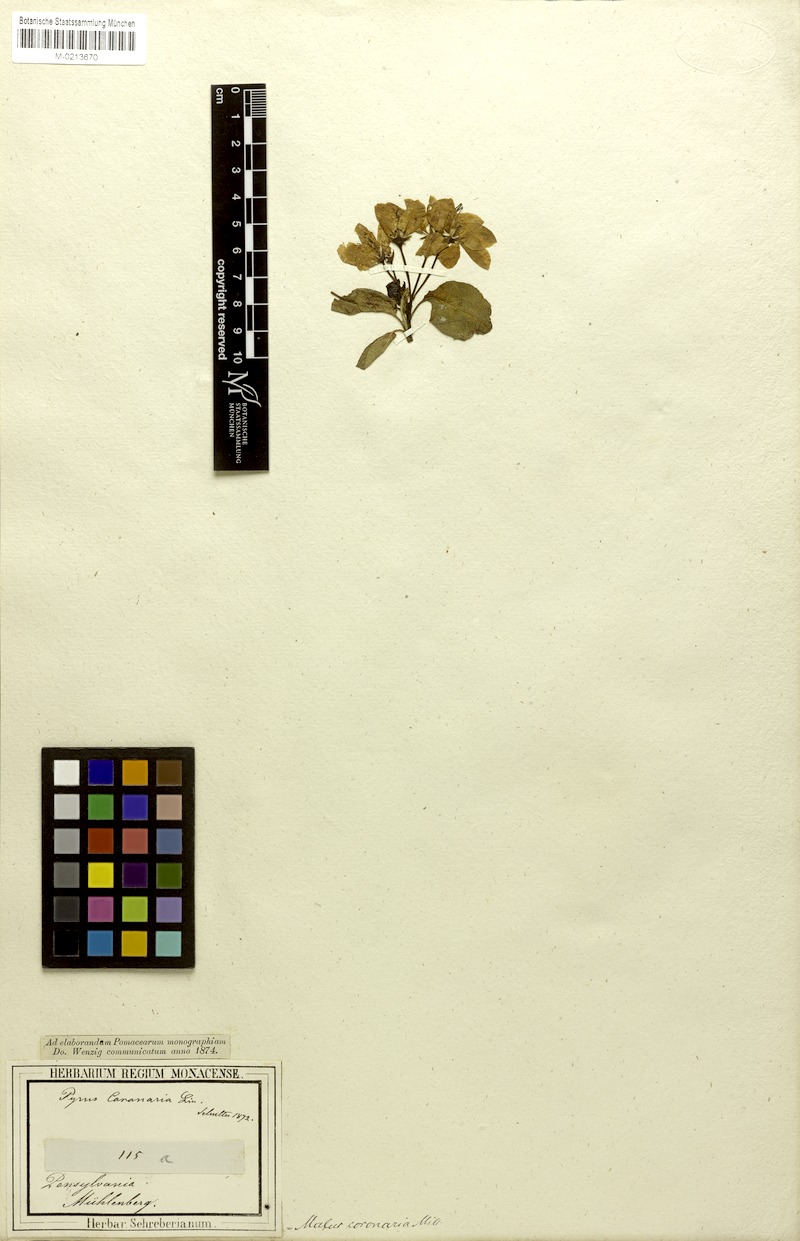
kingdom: Plantae
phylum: Tracheophyta
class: Magnoliopsida
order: Rosales
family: Rosaceae
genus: Malus
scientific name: Malus coronaria
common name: Sweet crab apple
